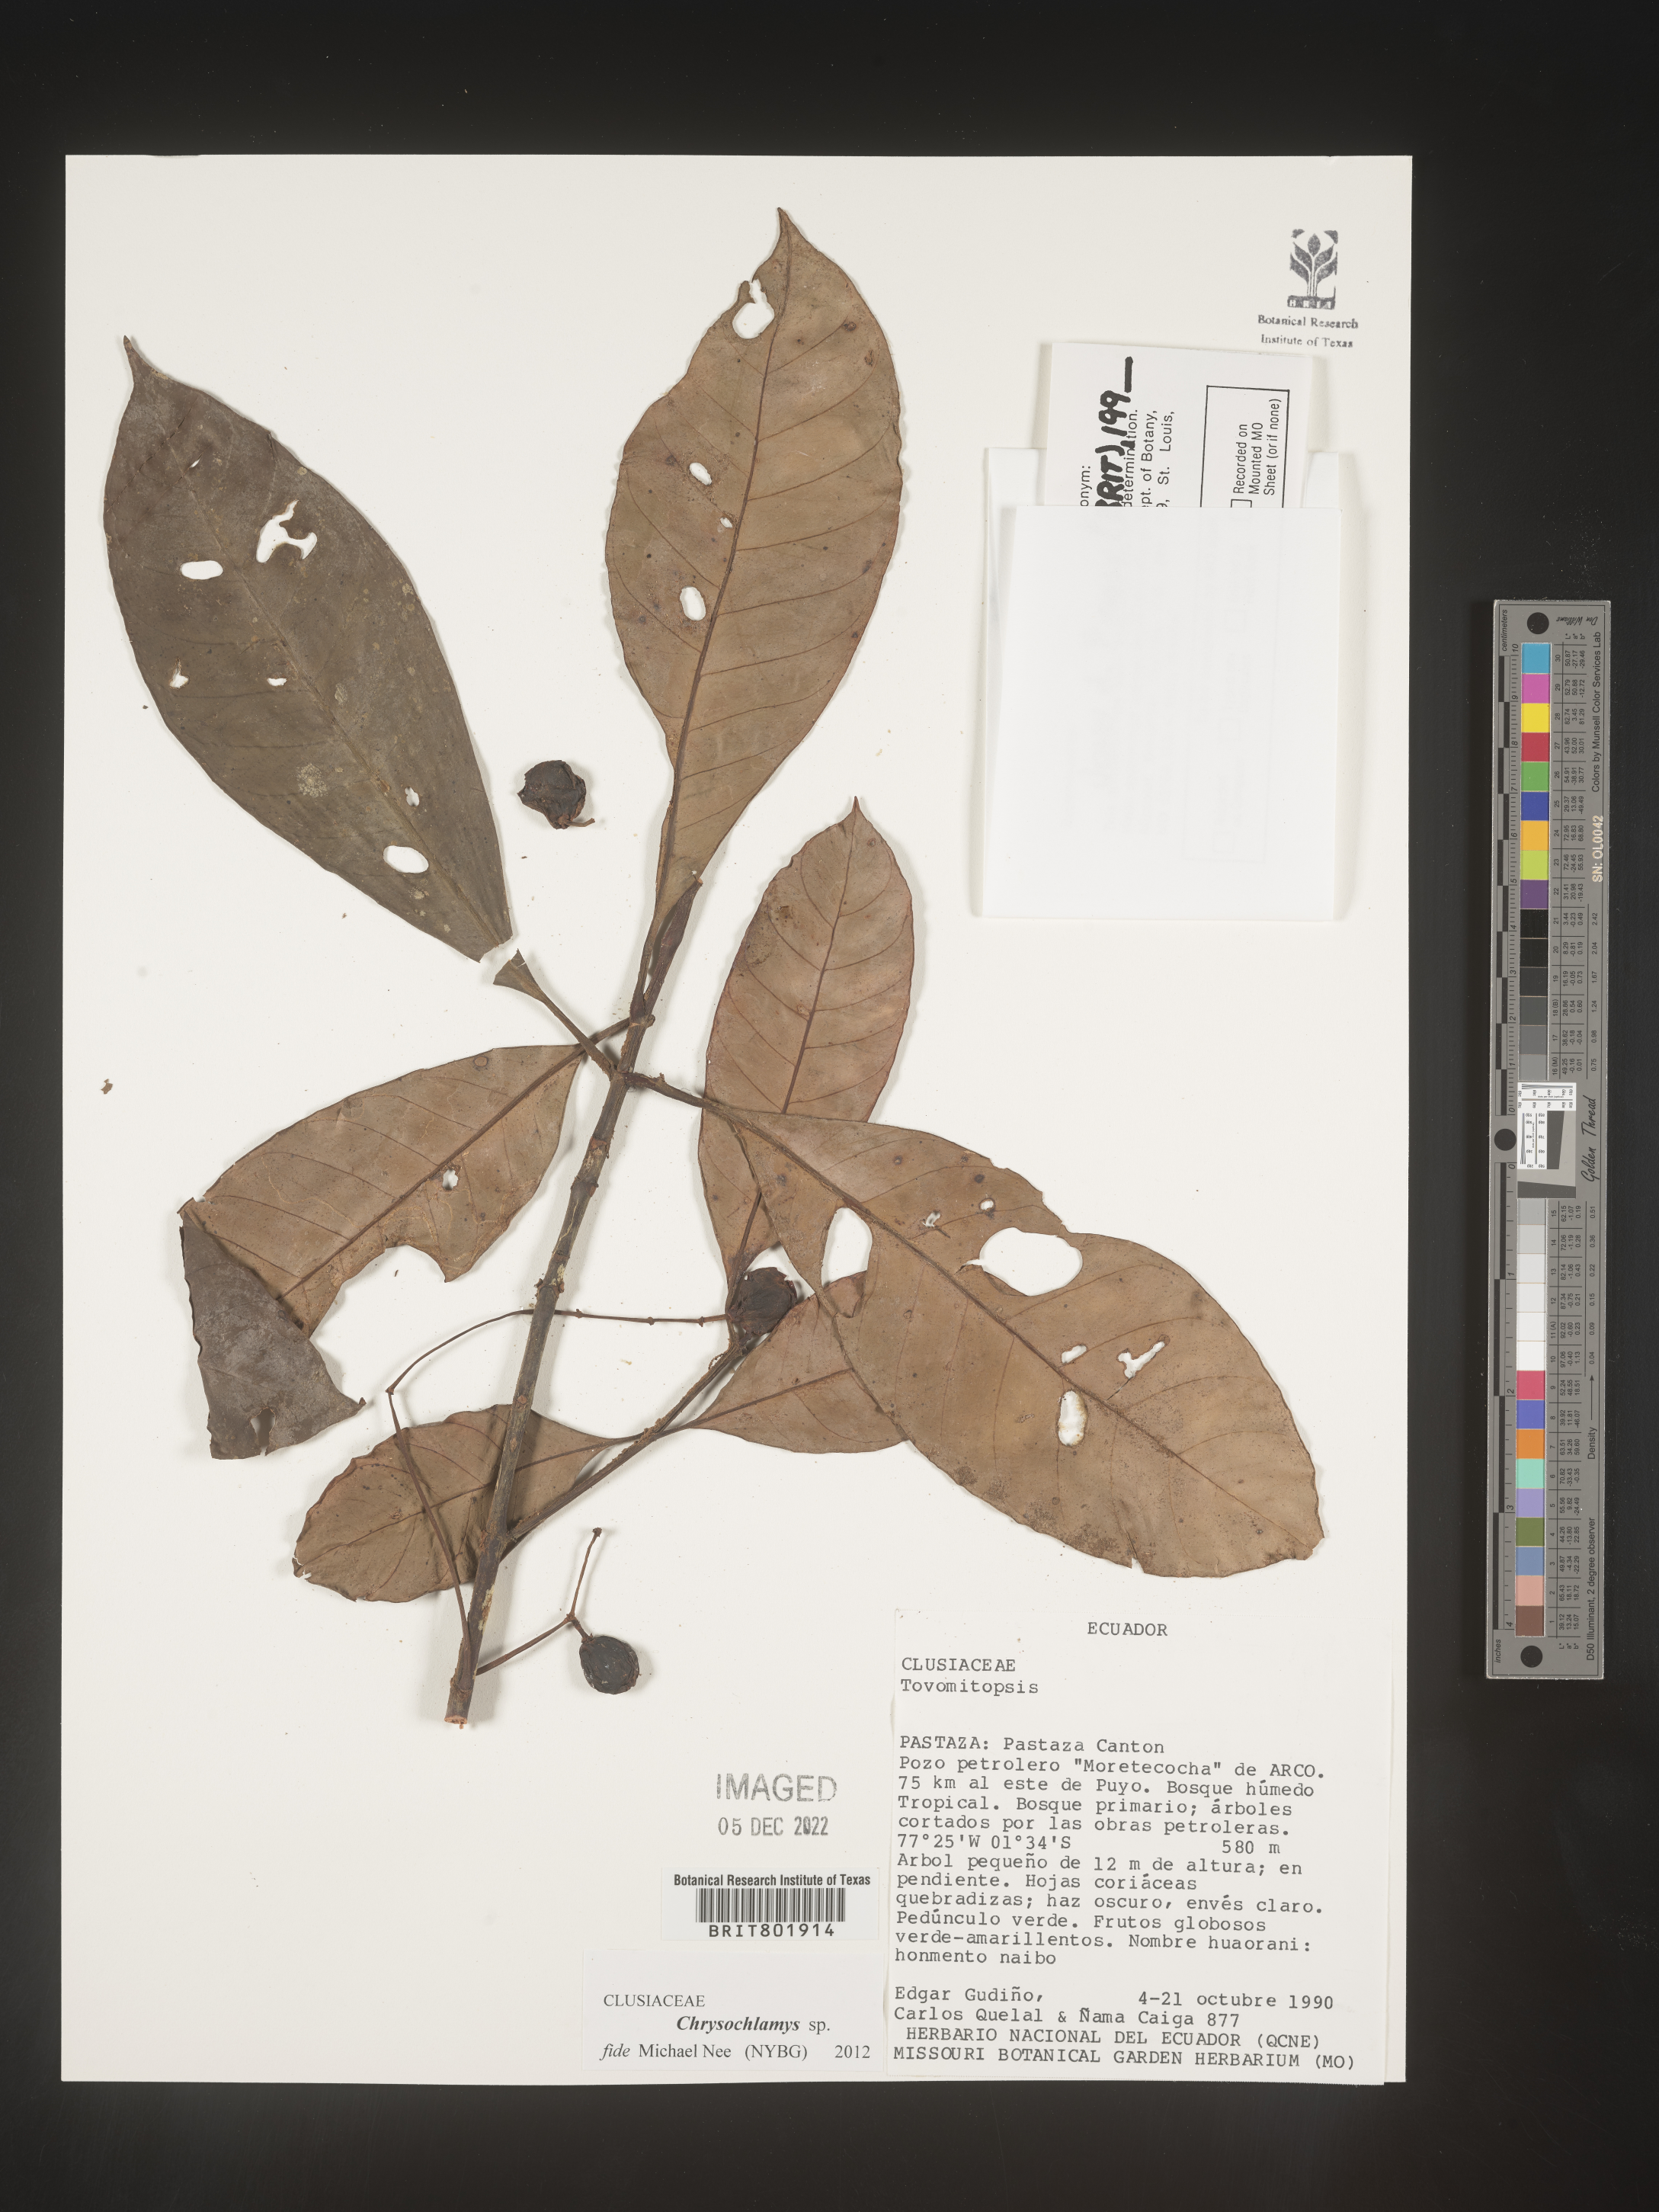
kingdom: Plantae
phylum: Tracheophyta
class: Magnoliopsida
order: Malpighiales
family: Clusiaceae
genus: Chrysochlamys
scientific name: Chrysochlamys
